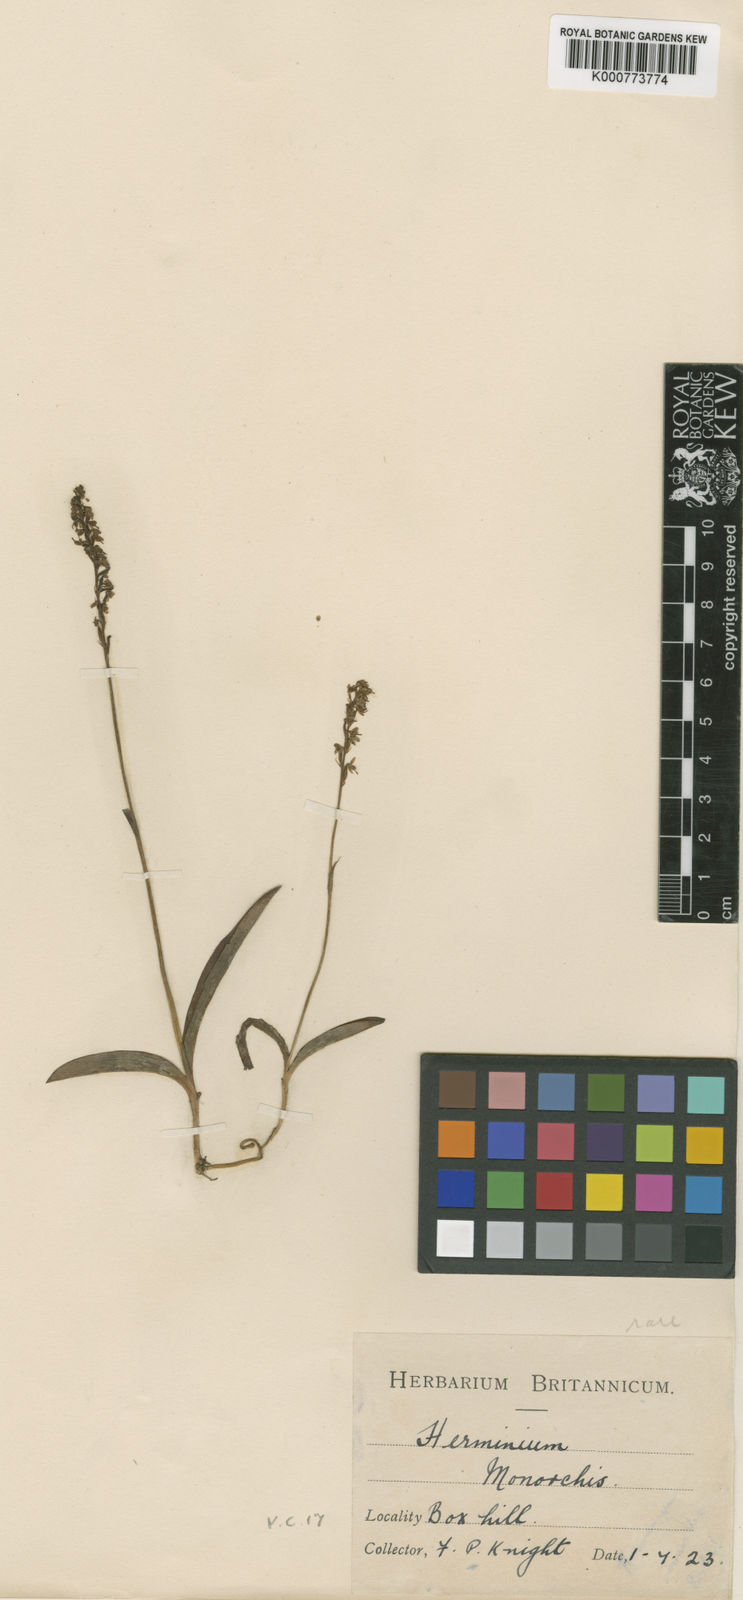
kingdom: Plantae
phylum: Tracheophyta
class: Liliopsida
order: Asparagales
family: Orchidaceae
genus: Herminium
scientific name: Herminium monorchis
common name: Musk orchid
